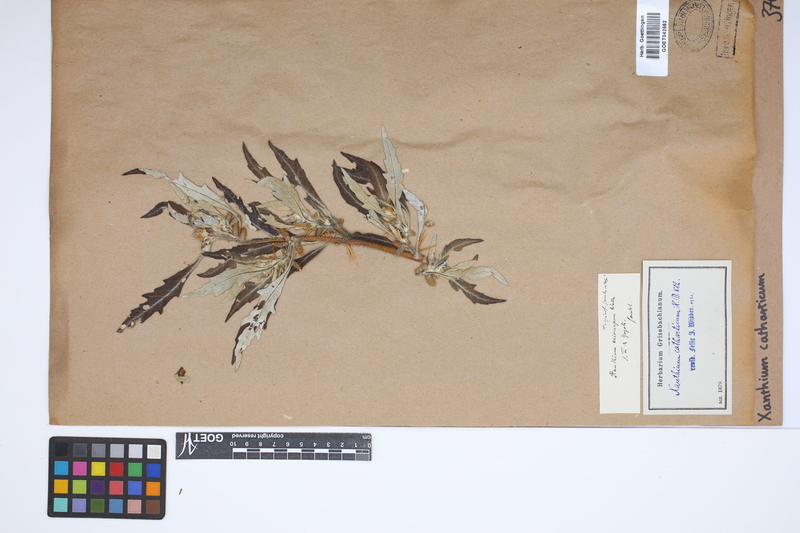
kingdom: Plantae
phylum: Tracheophyta
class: Magnoliopsida
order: Asterales
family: Asteraceae
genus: Xanthium
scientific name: Xanthium spinosum
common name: Spiny cocklebur
